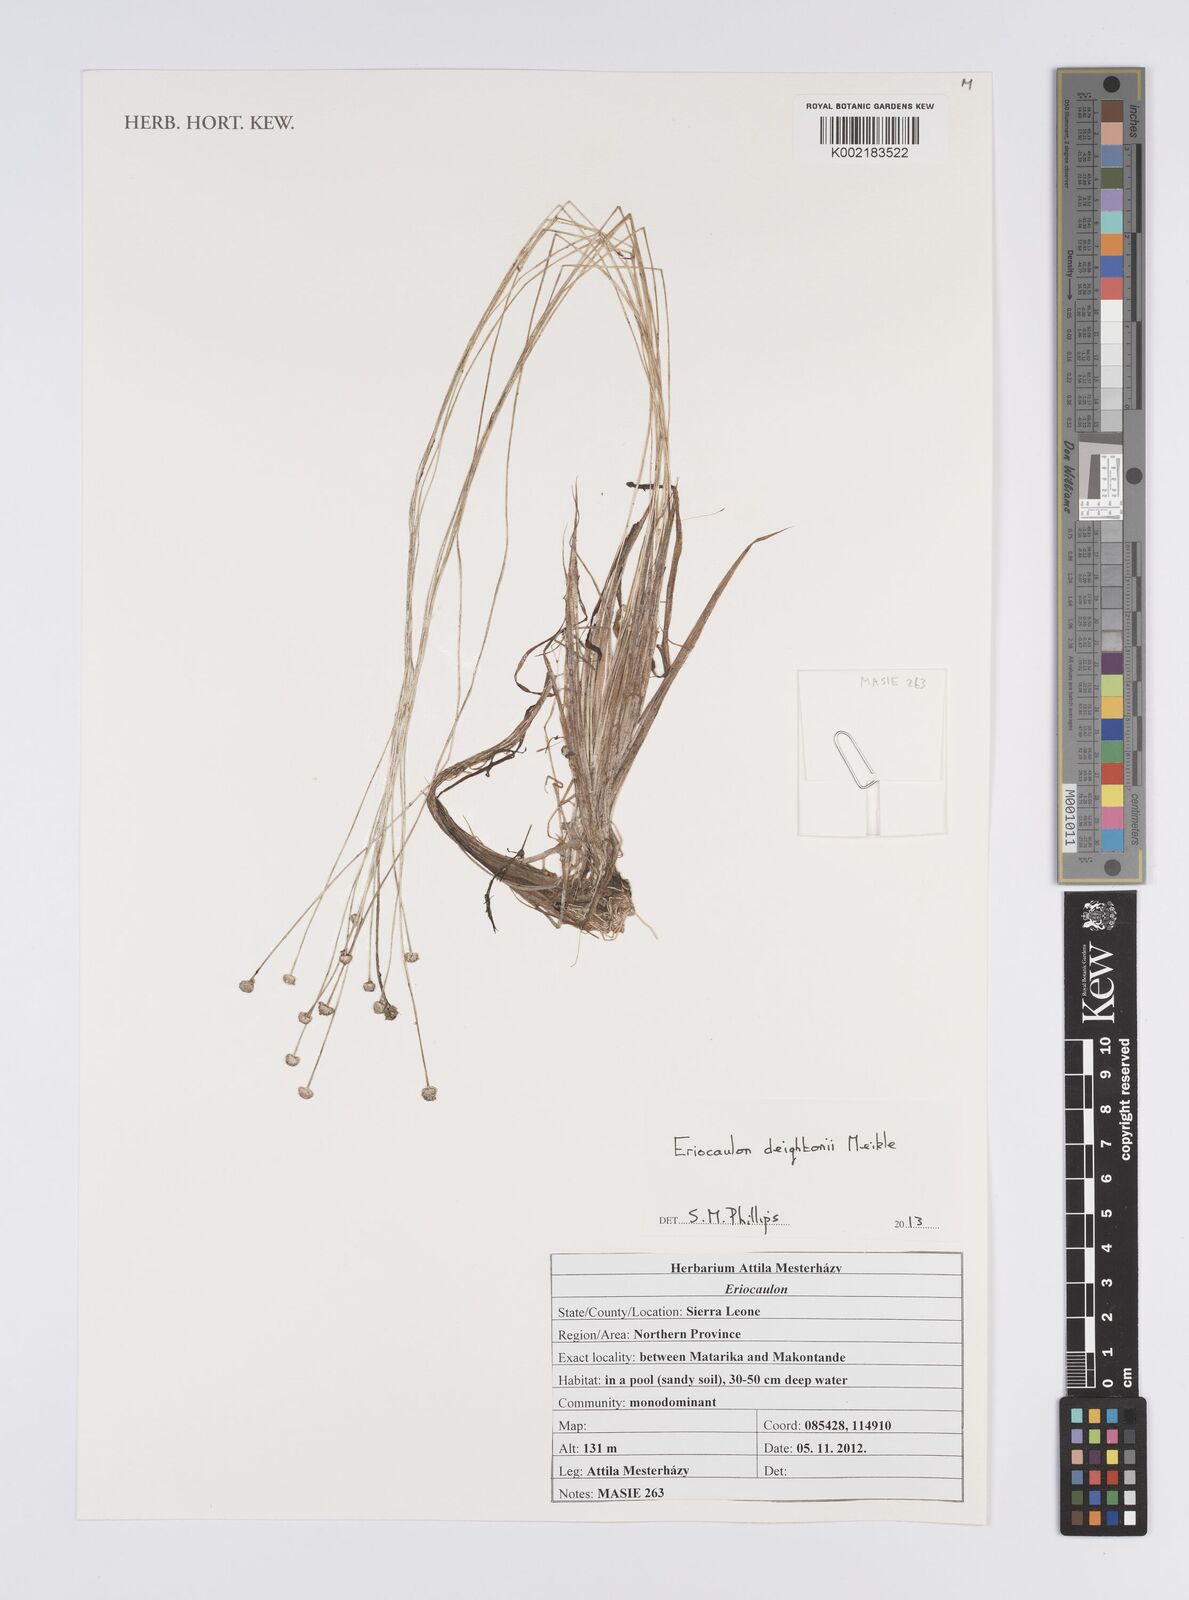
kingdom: Plantae
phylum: Tracheophyta
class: Liliopsida
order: Poales
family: Eriocaulaceae
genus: Eriocaulon
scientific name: Eriocaulon deightonii
